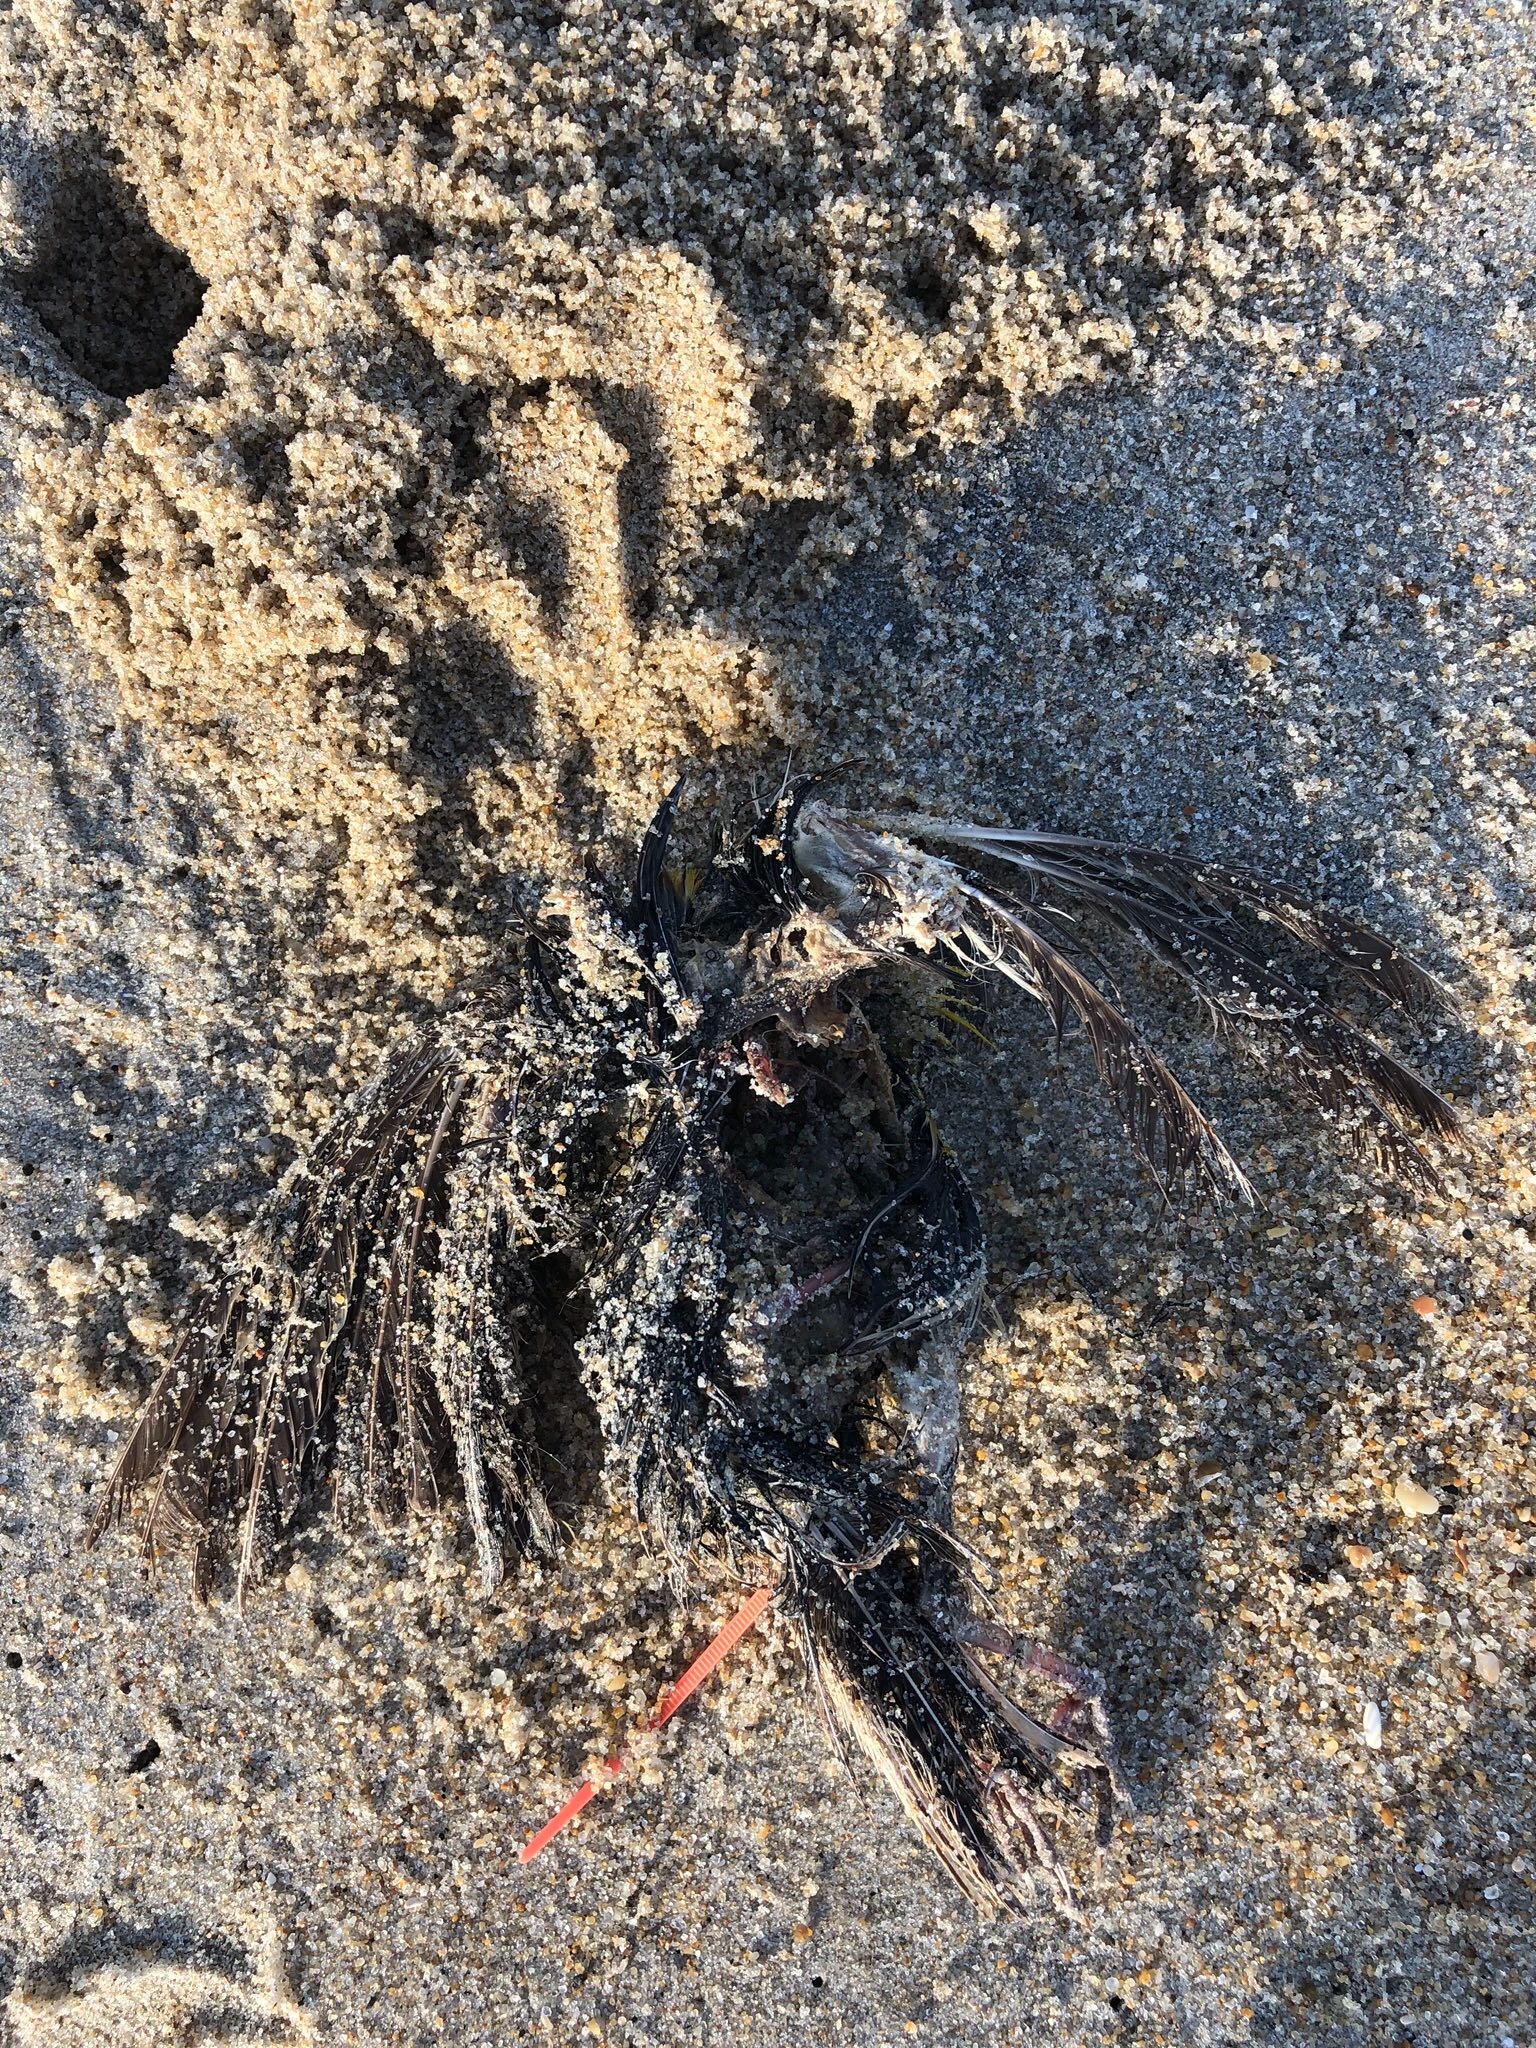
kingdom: Animalia
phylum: Chordata
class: Aves
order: Piciformes
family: Picidae
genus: Sphyrapicus
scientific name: Sphyrapicus varius
